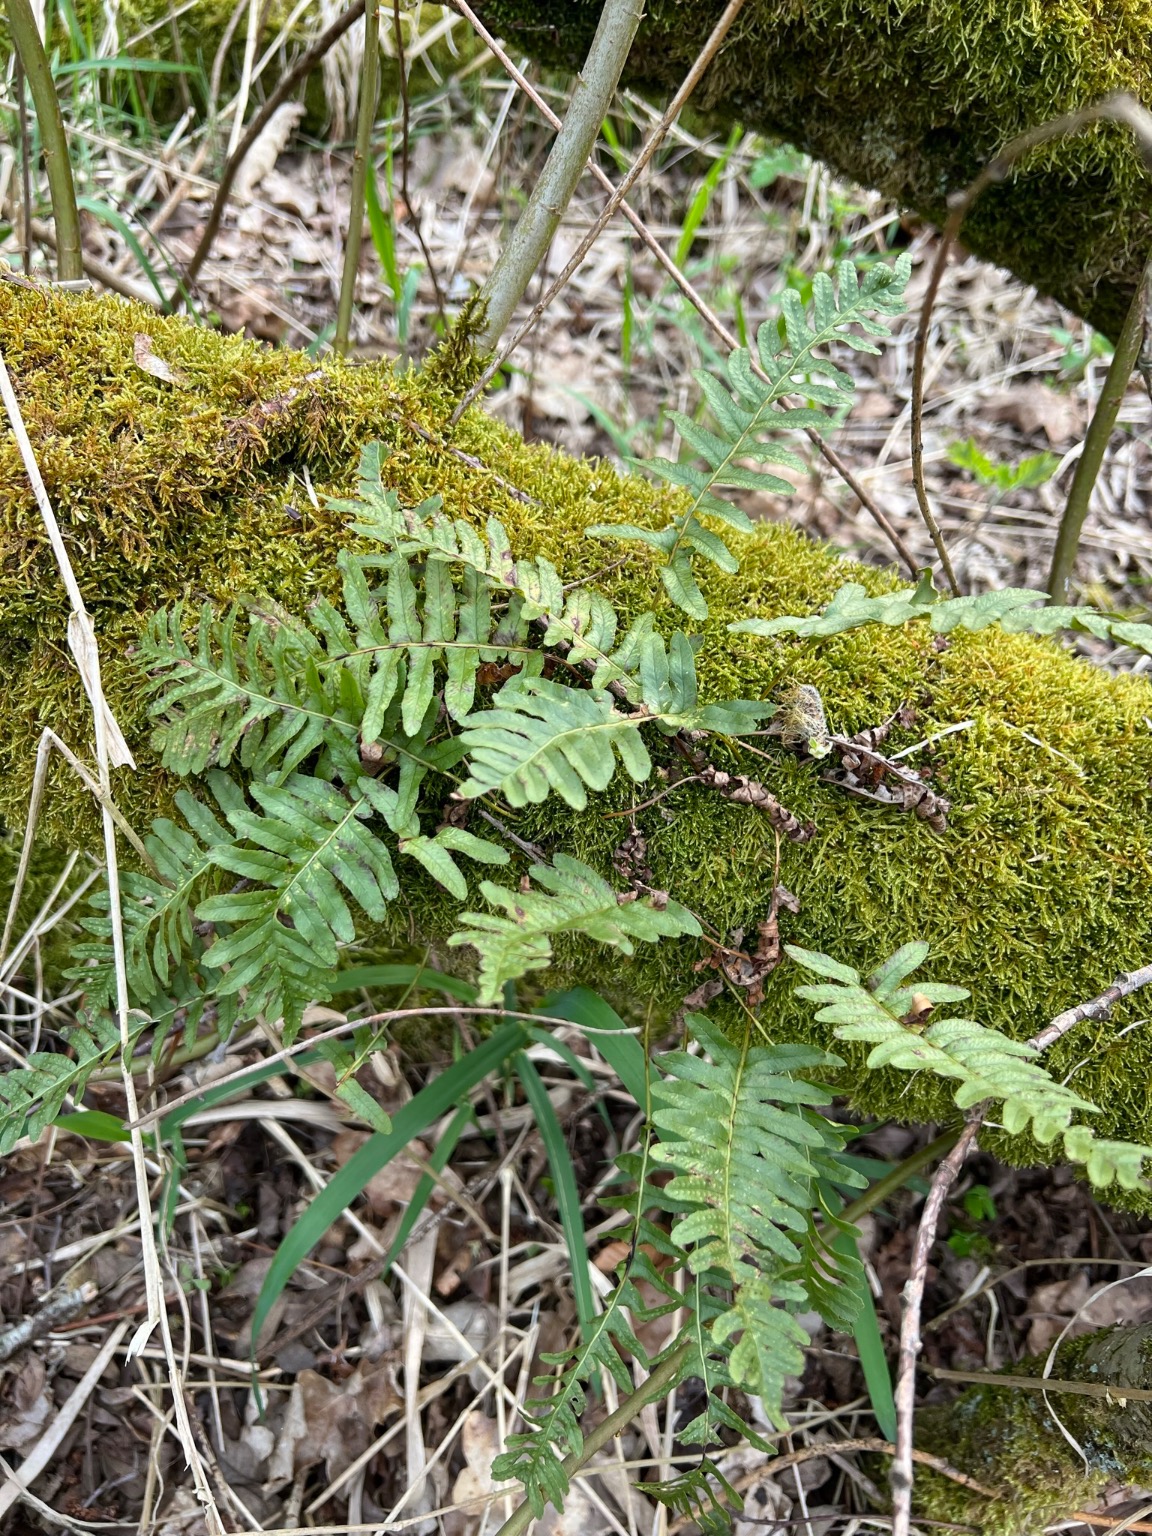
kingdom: Plantae
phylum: Tracheophyta
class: Polypodiopsida
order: Polypodiales
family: Polypodiaceae
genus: Polypodium
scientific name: Polypodium vulgare
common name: Almindelig engelsød
